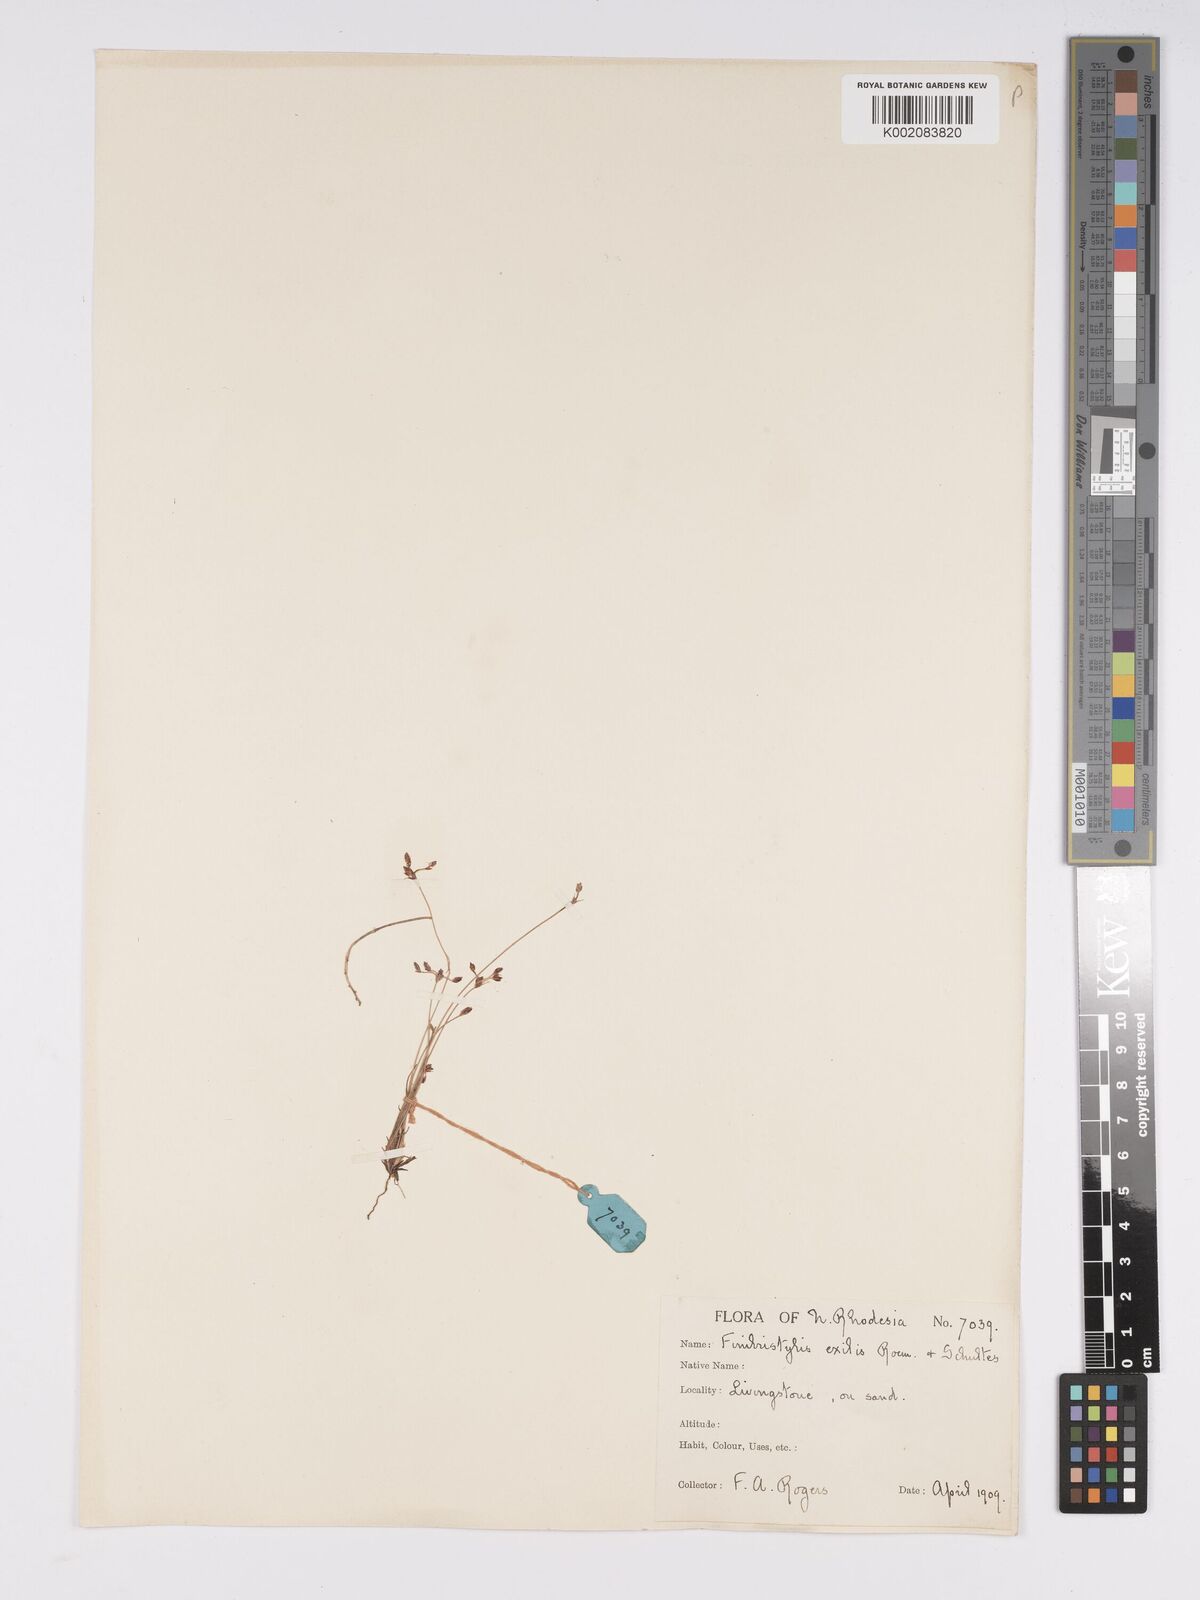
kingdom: Plantae
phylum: Tracheophyta
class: Liliopsida
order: Poales
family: Cyperaceae
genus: Bulbostylis
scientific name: Bulbostylis hispidula
